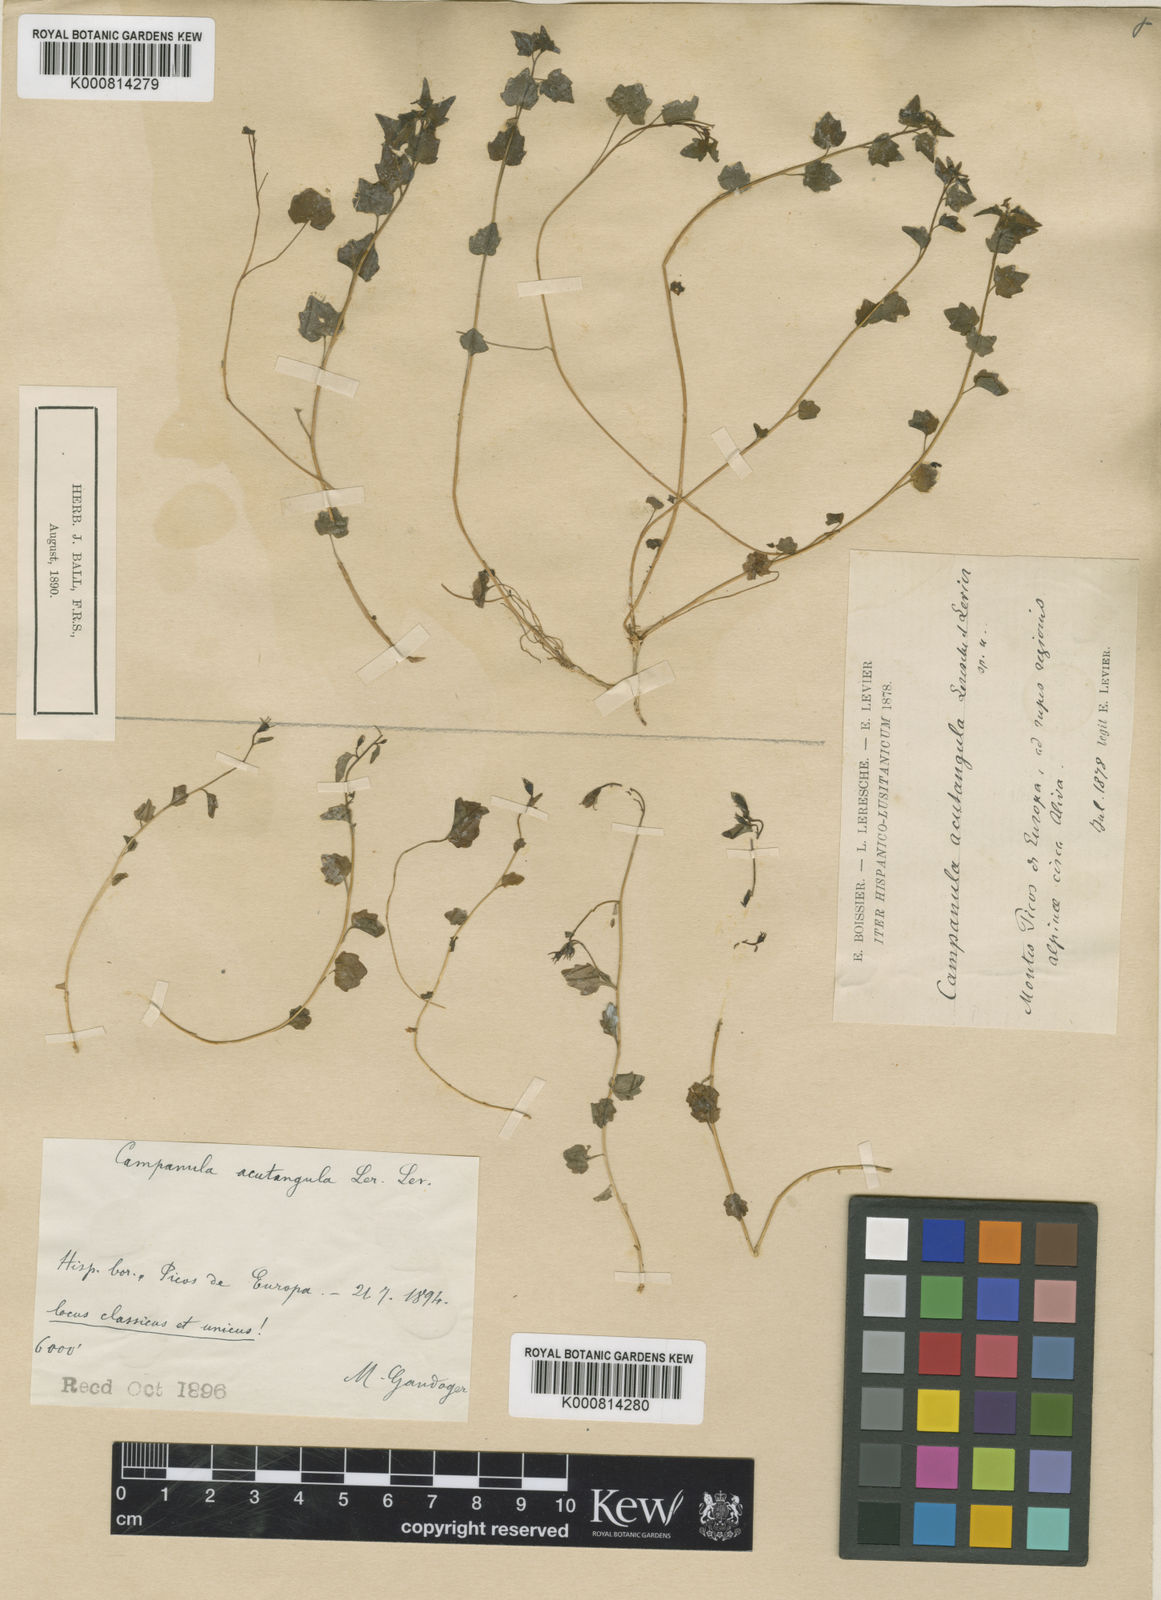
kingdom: Plantae
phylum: Tracheophyta
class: Magnoliopsida
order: Asterales
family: Campanulaceae
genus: Campanula
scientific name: Campanula arvatica
